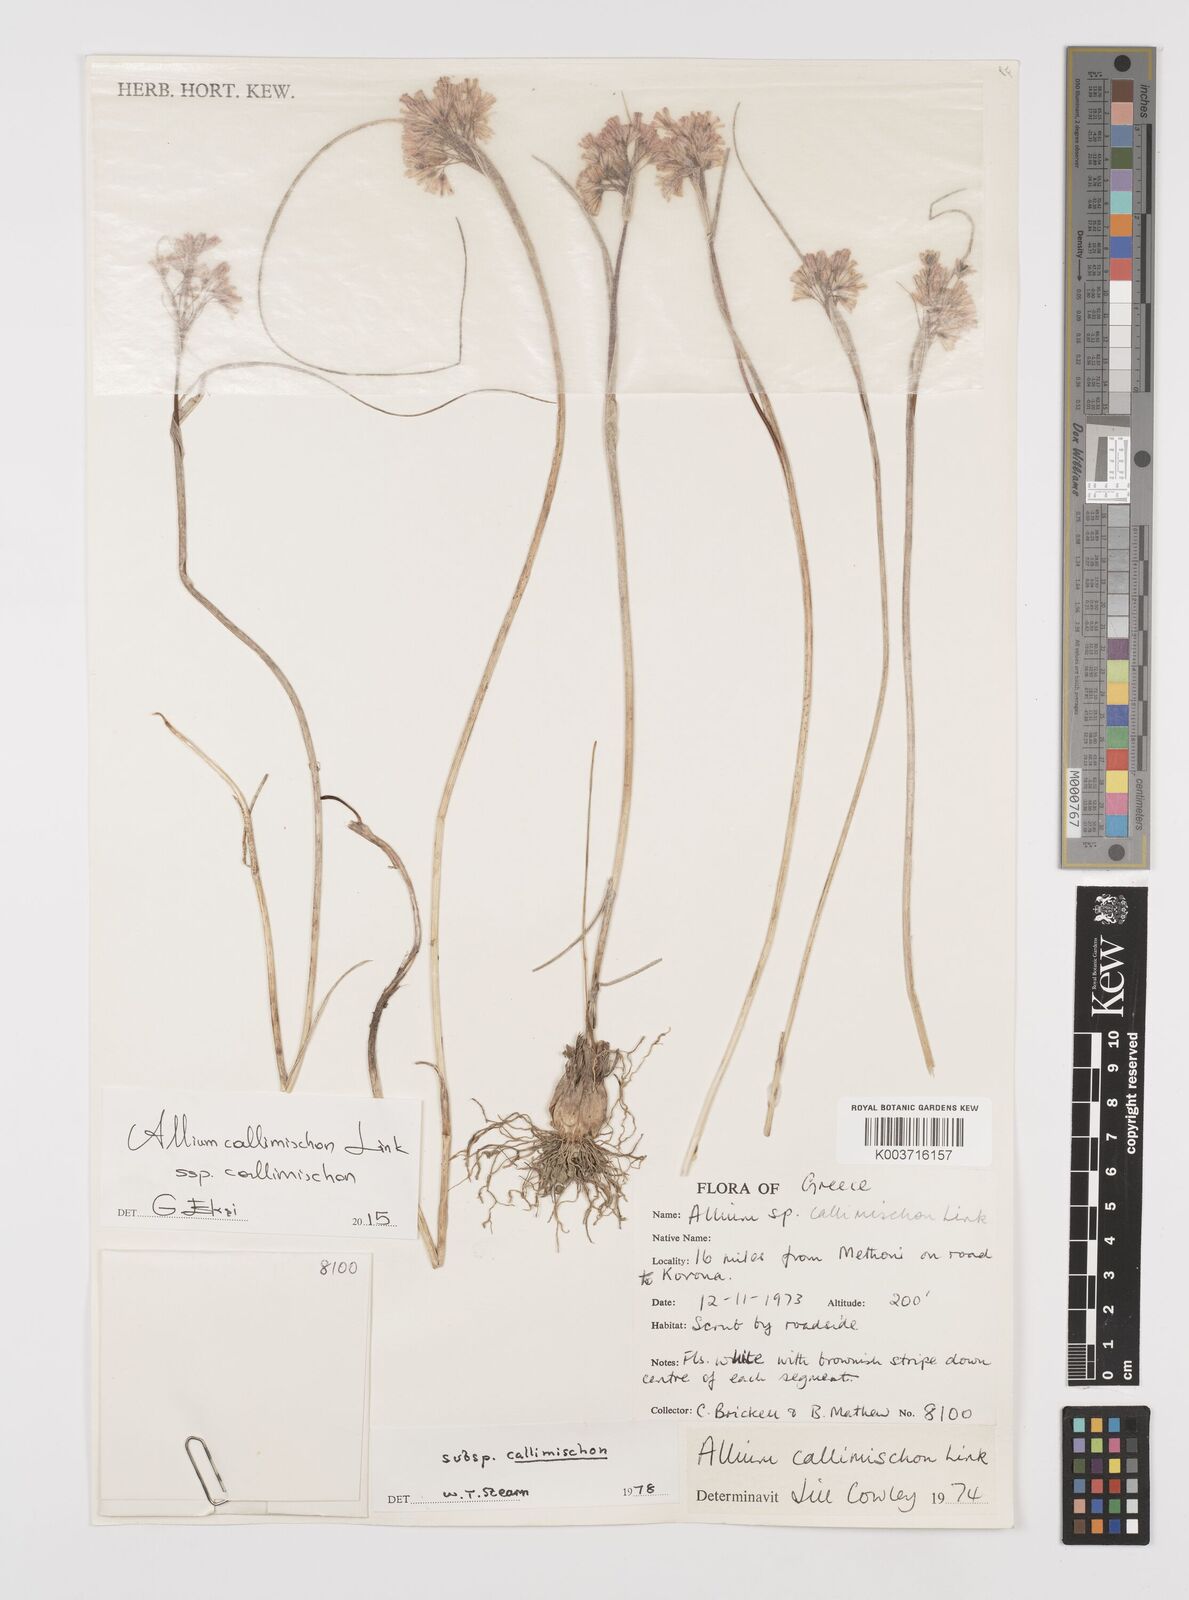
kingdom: Plantae
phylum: Tracheophyta
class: Liliopsida
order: Asparagales
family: Amaryllidaceae
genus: Allium
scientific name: Allium callimischon
